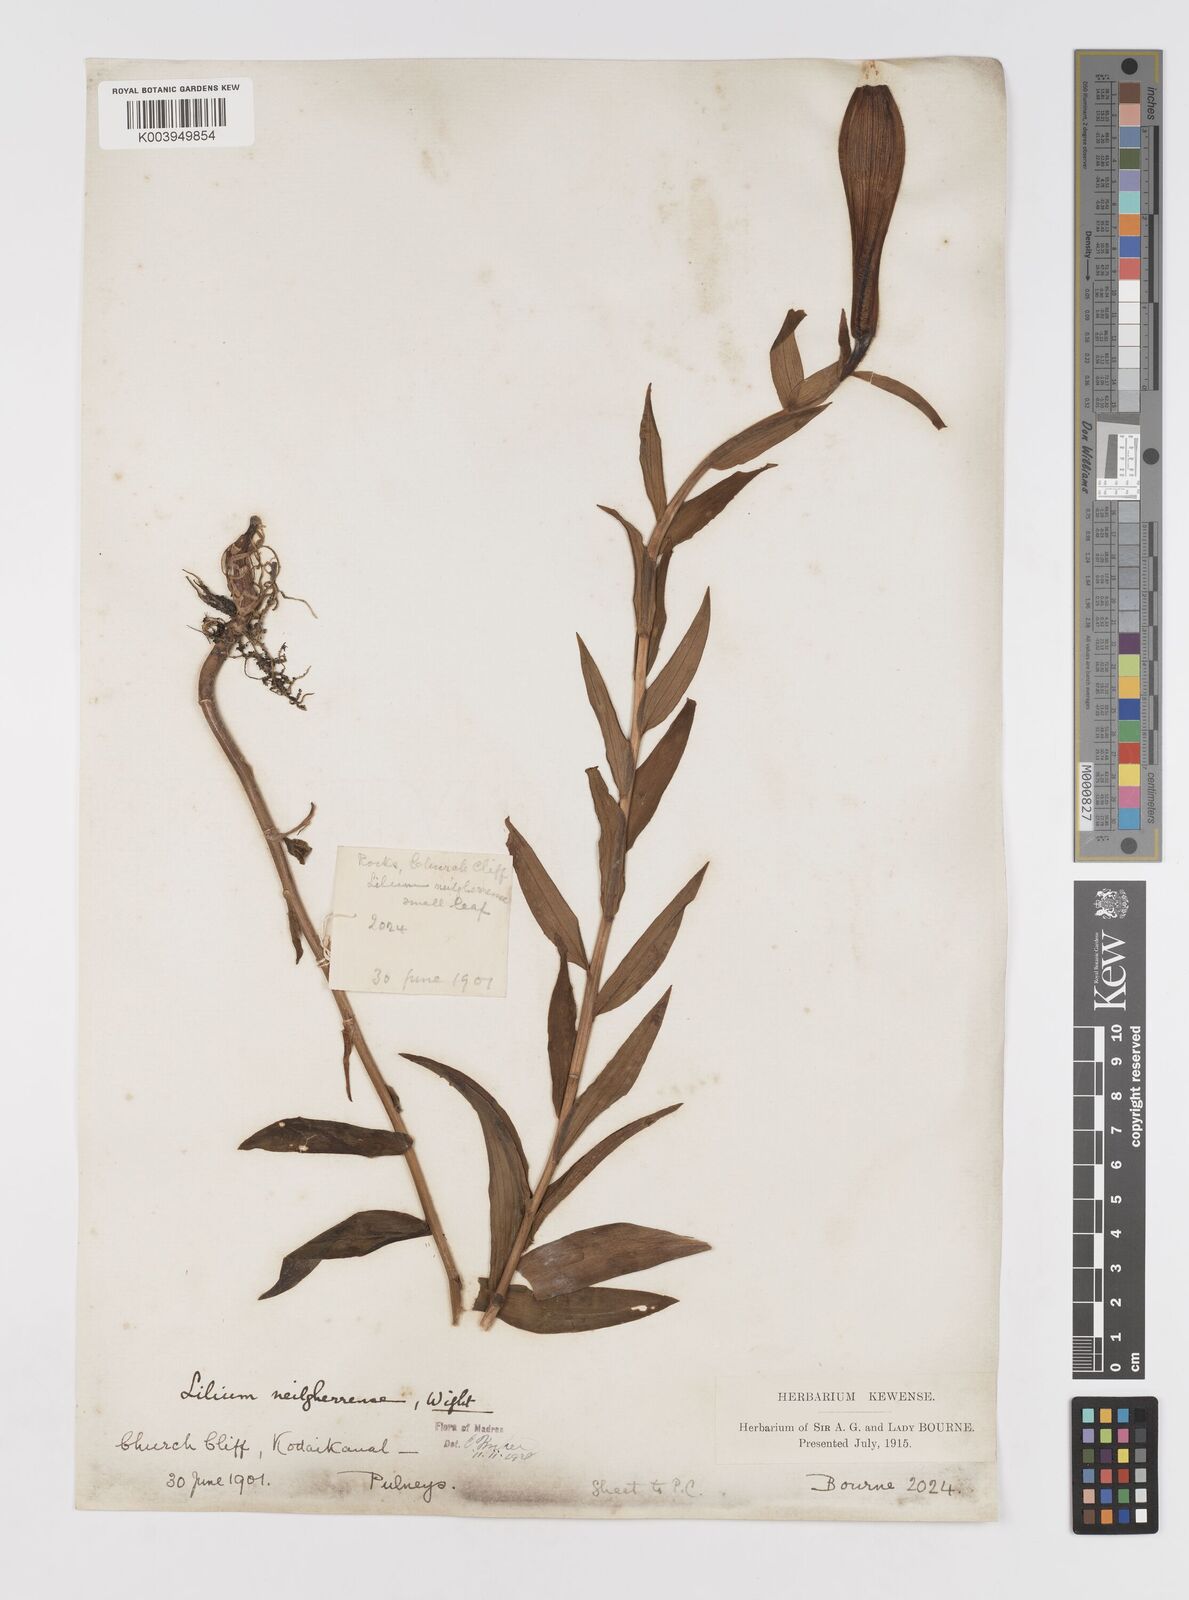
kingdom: Plantae
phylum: Tracheophyta
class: Liliopsida
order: Liliales
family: Liliaceae
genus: Lilium
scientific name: Lilium wallichianum
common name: Wallich's lily
